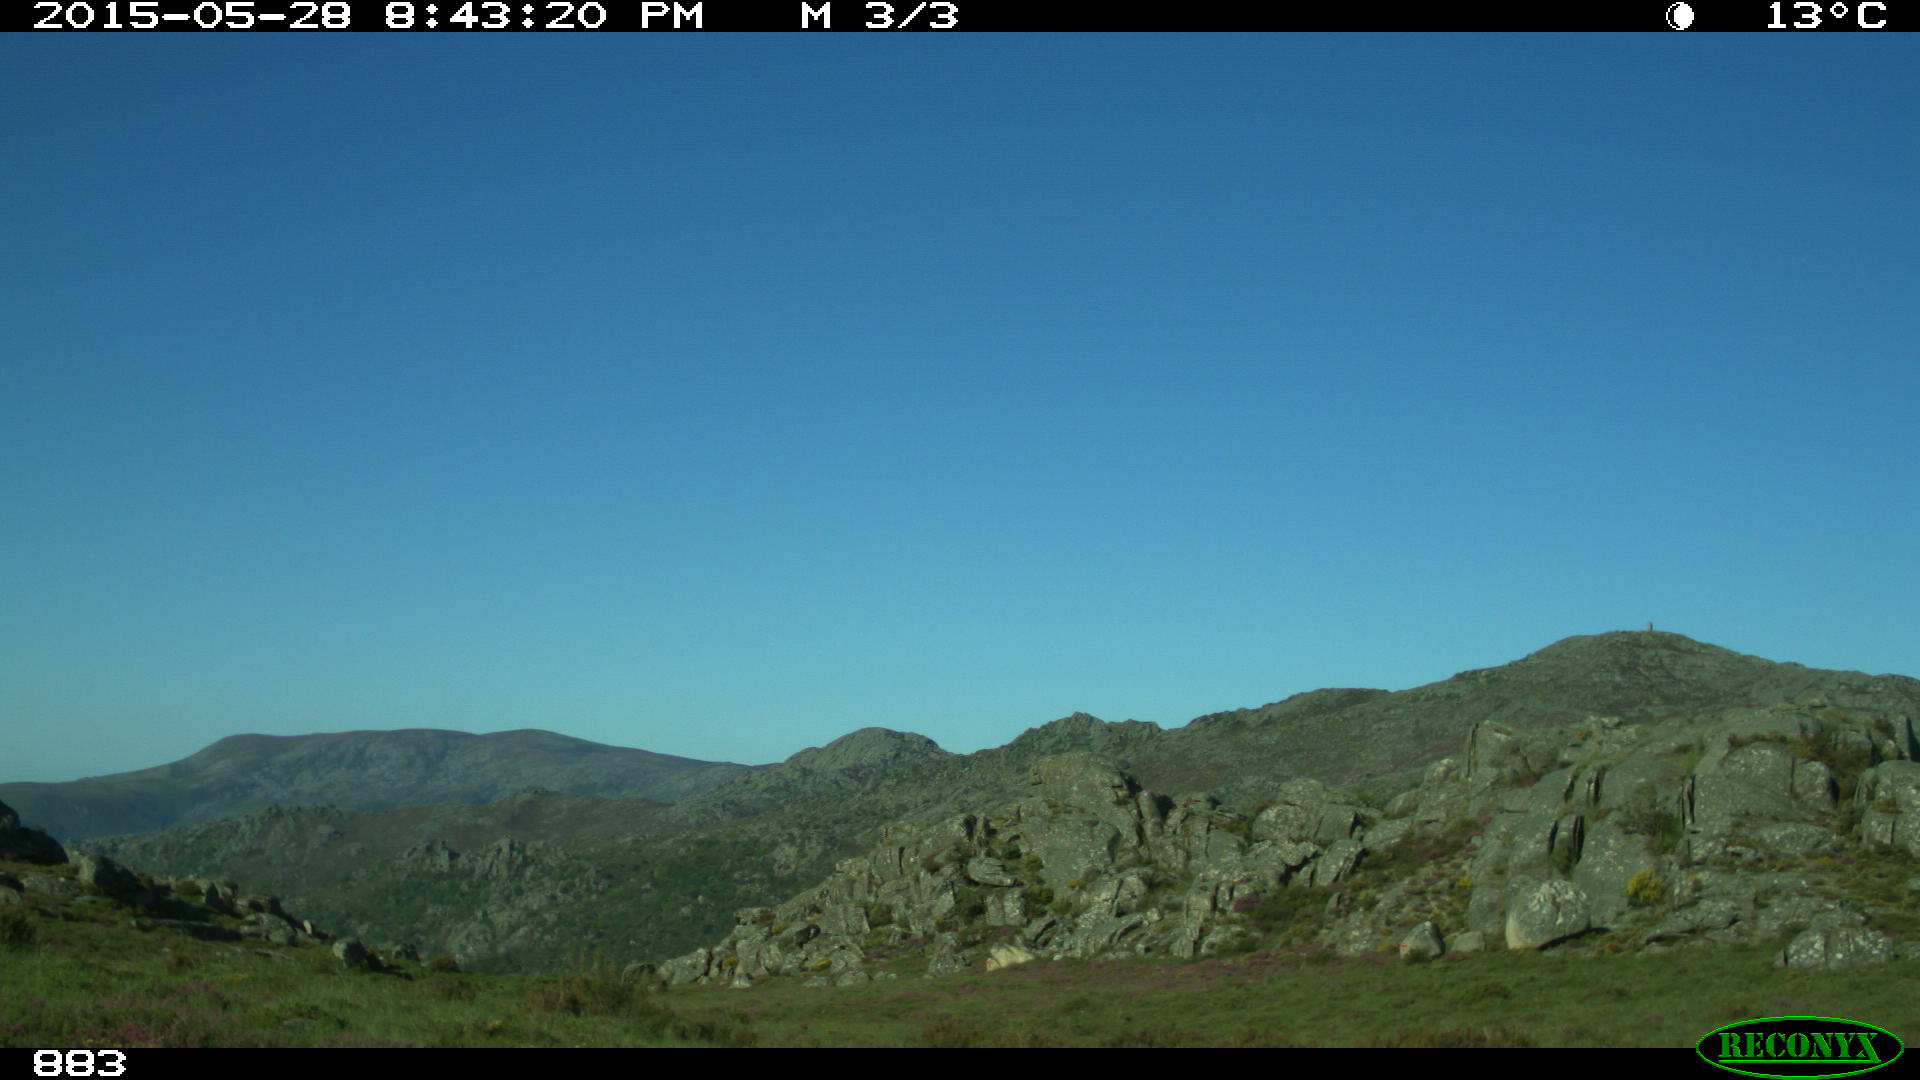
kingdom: Animalia
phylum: Chordata
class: Mammalia
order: Perissodactyla
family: Equidae
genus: Equus
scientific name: Equus caballus
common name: Horse
